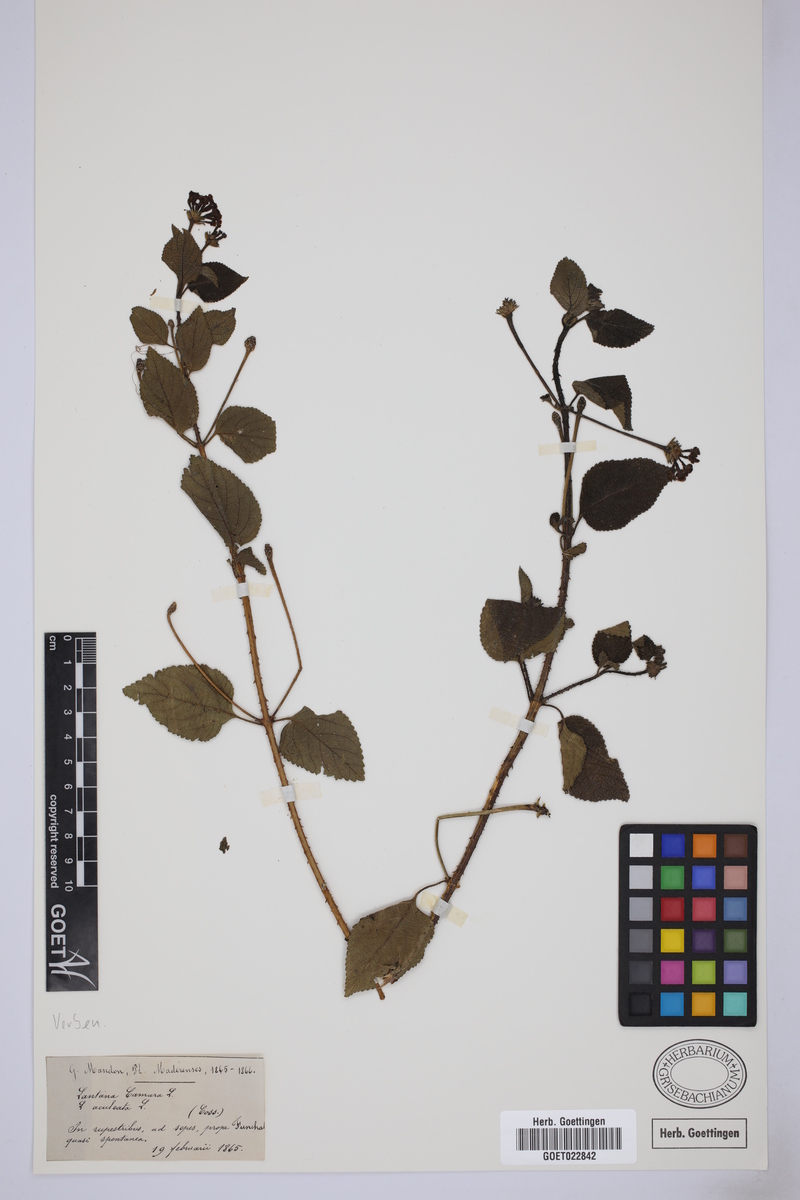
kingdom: Plantae
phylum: Tracheophyta
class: Magnoliopsida
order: Lamiales
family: Verbenaceae
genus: Lantana
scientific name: Lantana camara
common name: Lantana
